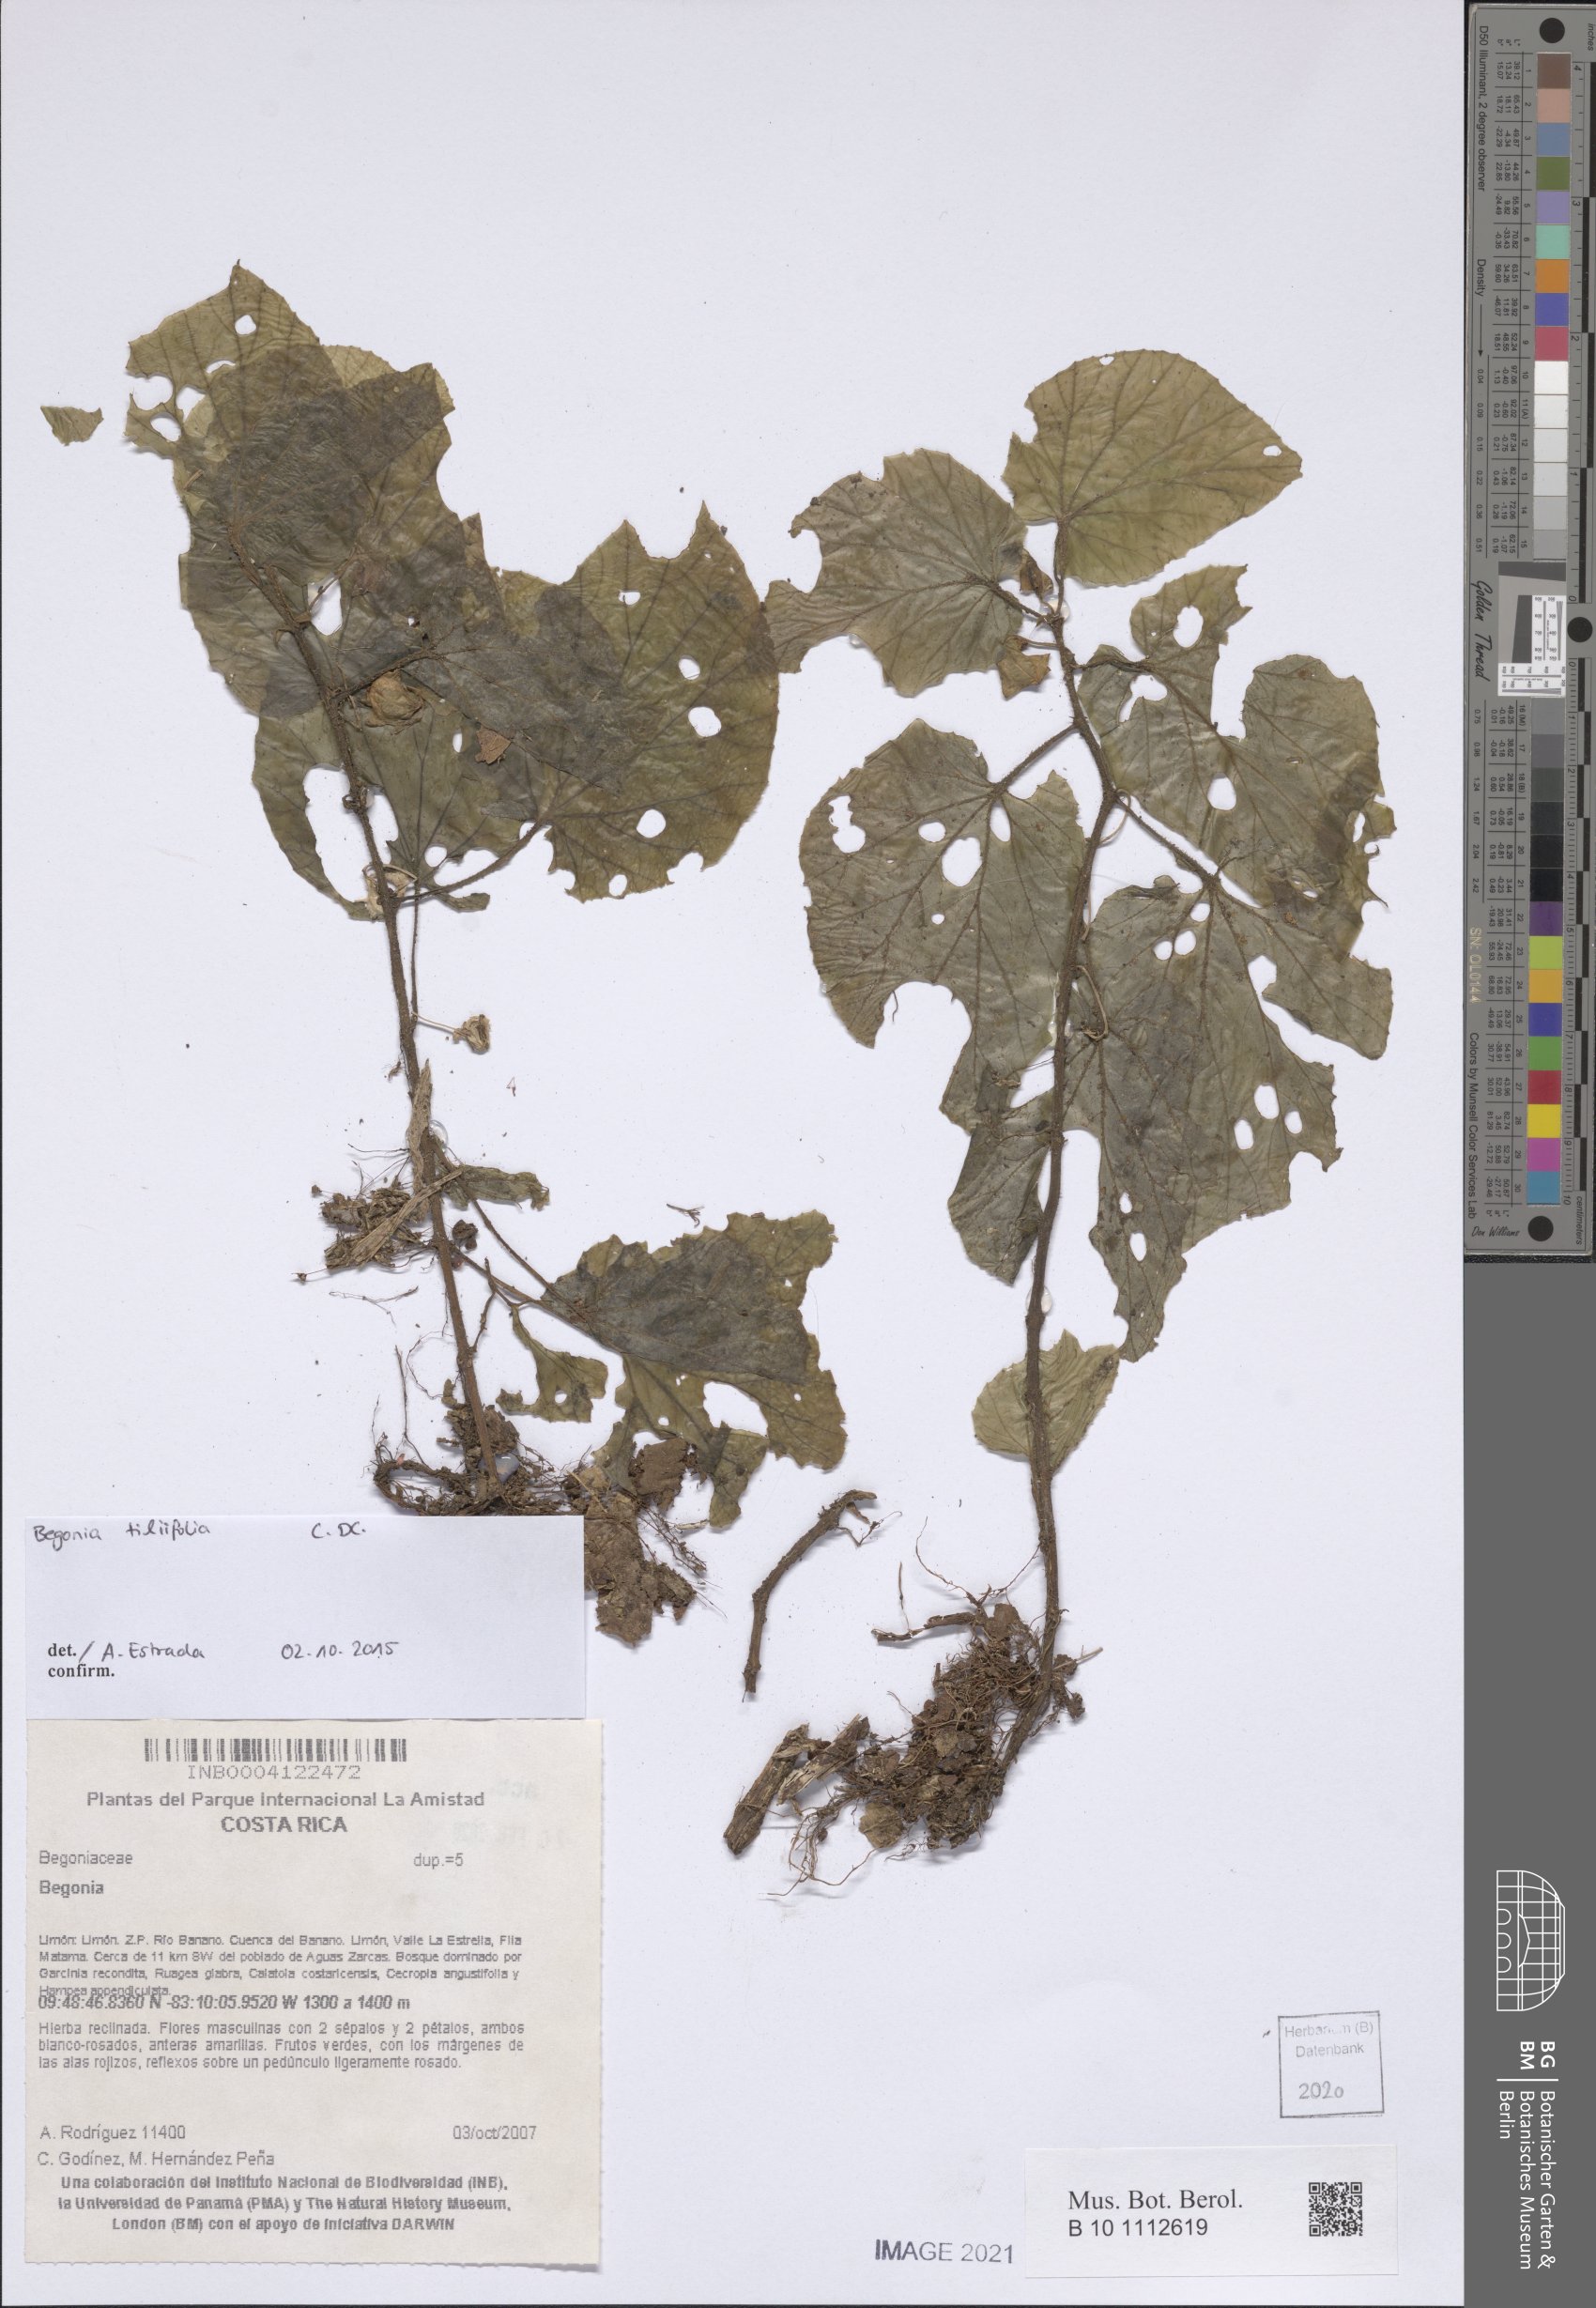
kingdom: Plantae
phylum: Tracheophyta
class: Magnoliopsida
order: Cucurbitales
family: Begoniaceae
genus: Begonia
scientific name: Begonia
